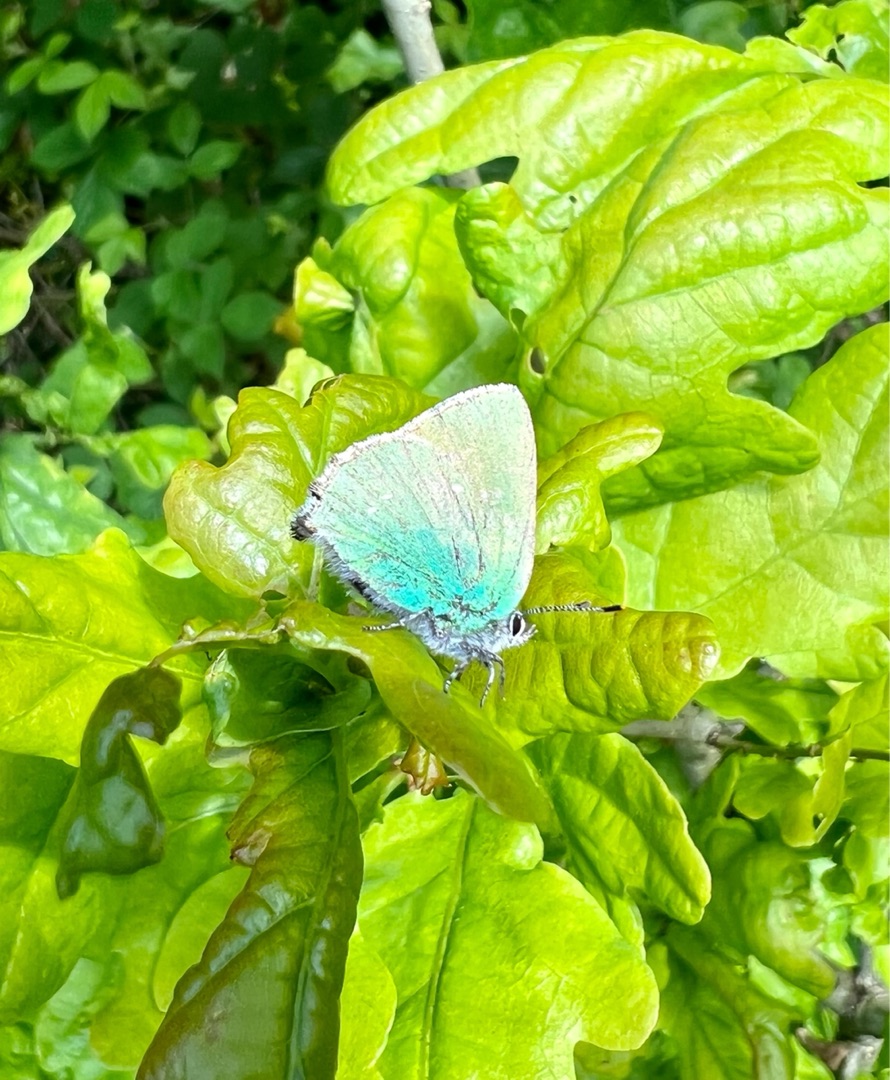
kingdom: Animalia
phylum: Arthropoda
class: Insecta
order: Lepidoptera
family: Lycaenidae
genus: Callophrys
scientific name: Callophrys rubi
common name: Grøn busksommerfugl
